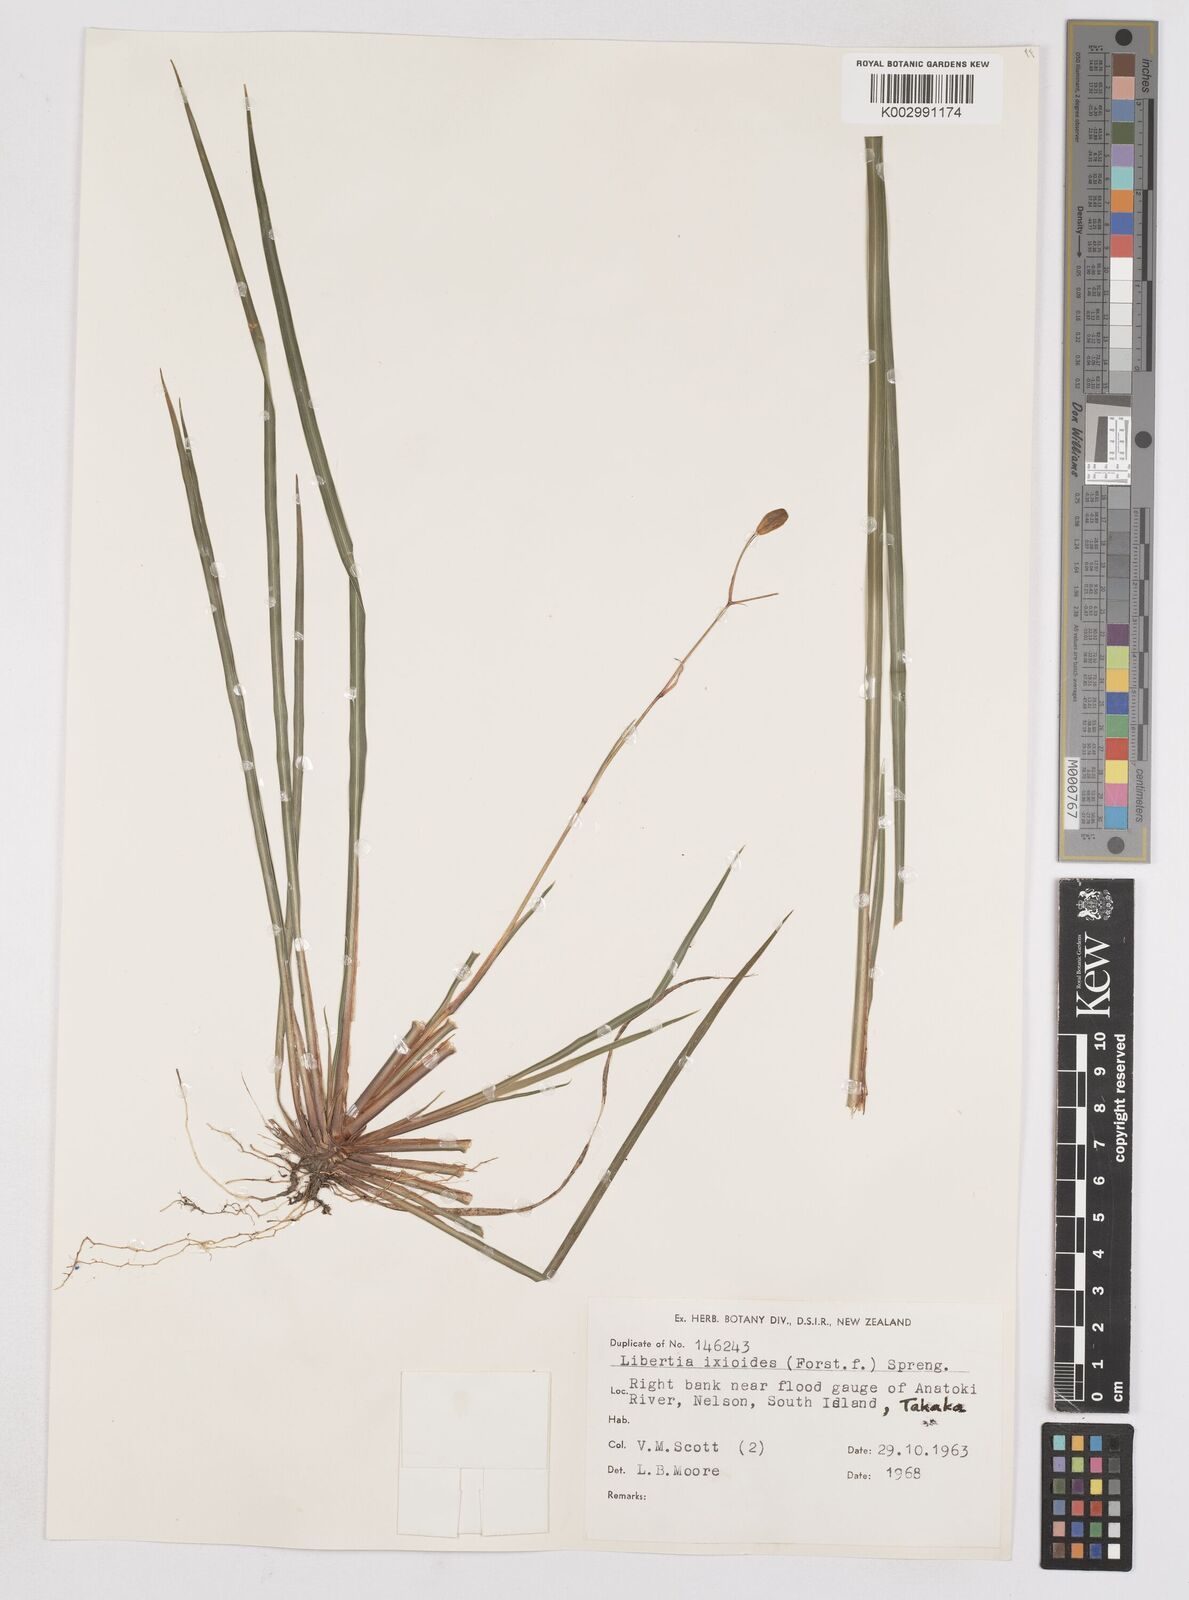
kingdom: Plantae
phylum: Tracheophyta
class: Liliopsida
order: Asparagales
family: Iridaceae
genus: Libertia
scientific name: Libertia ixioides
